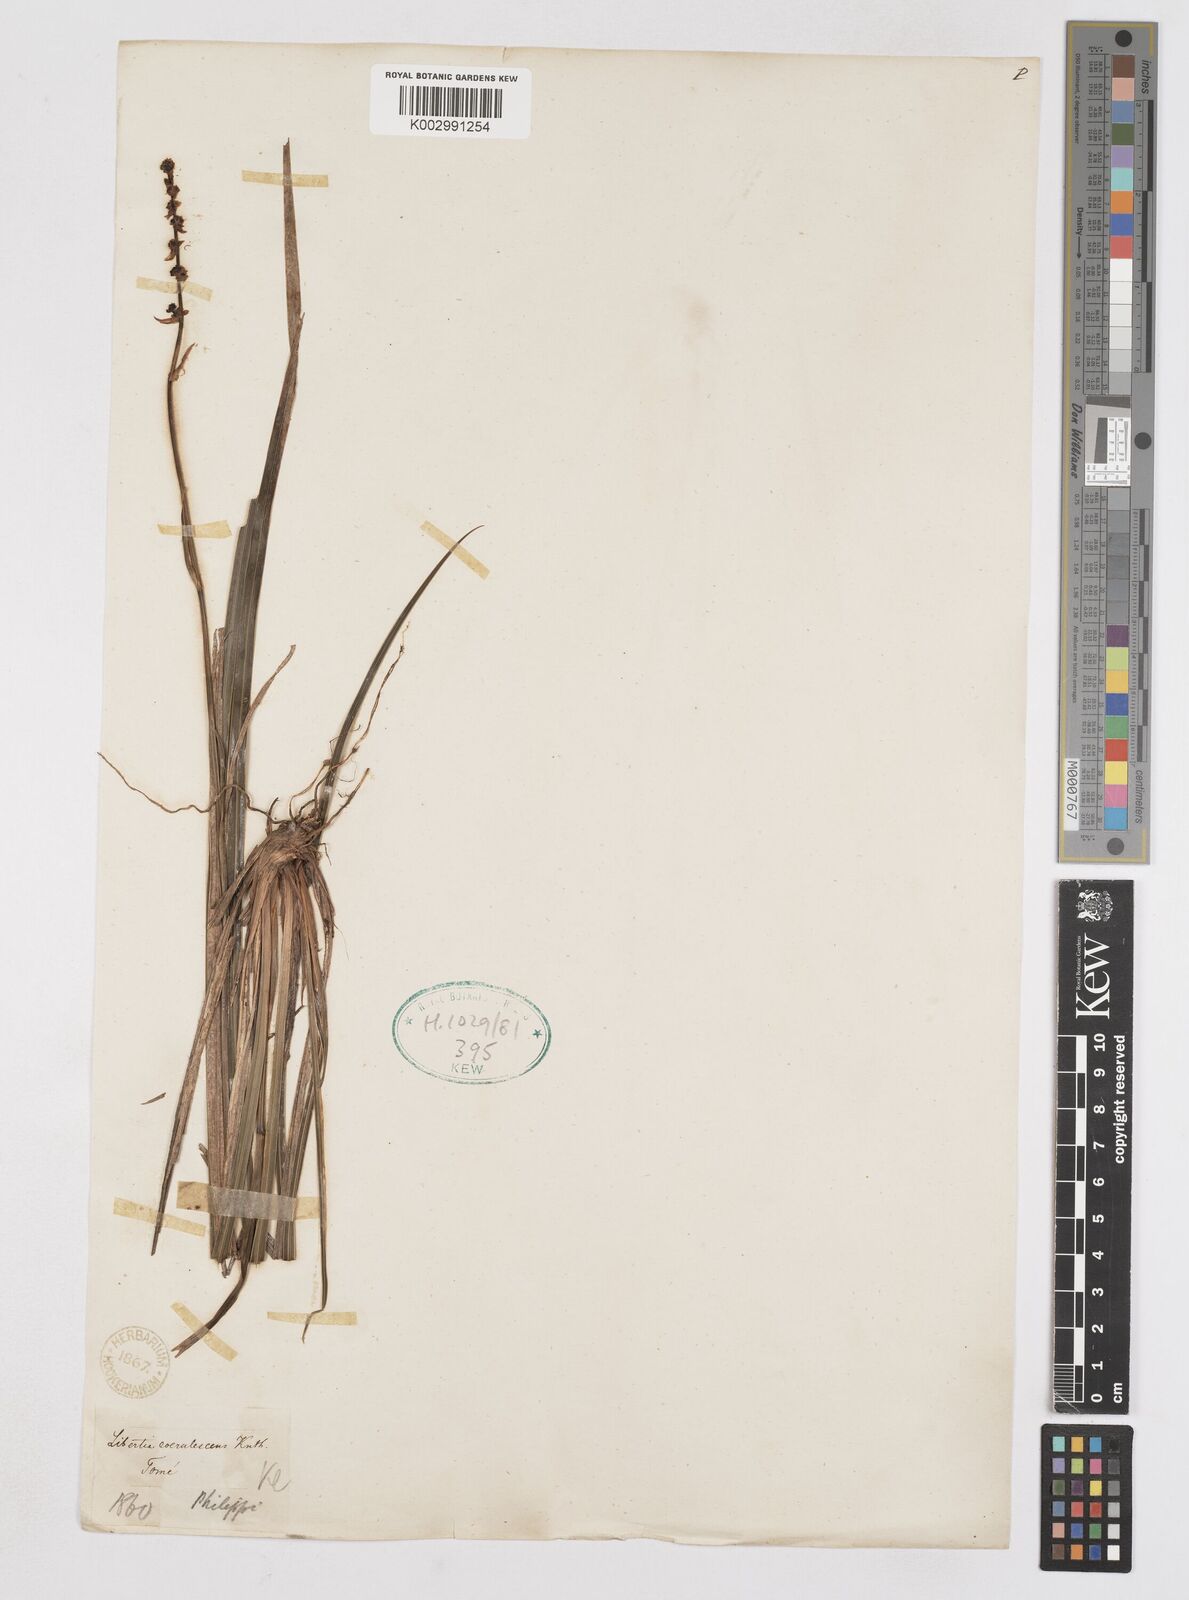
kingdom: Plantae
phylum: Tracheophyta
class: Liliopsida
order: Asparagales
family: Iridaceae
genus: Libertia
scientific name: Libertia sessiliflora
